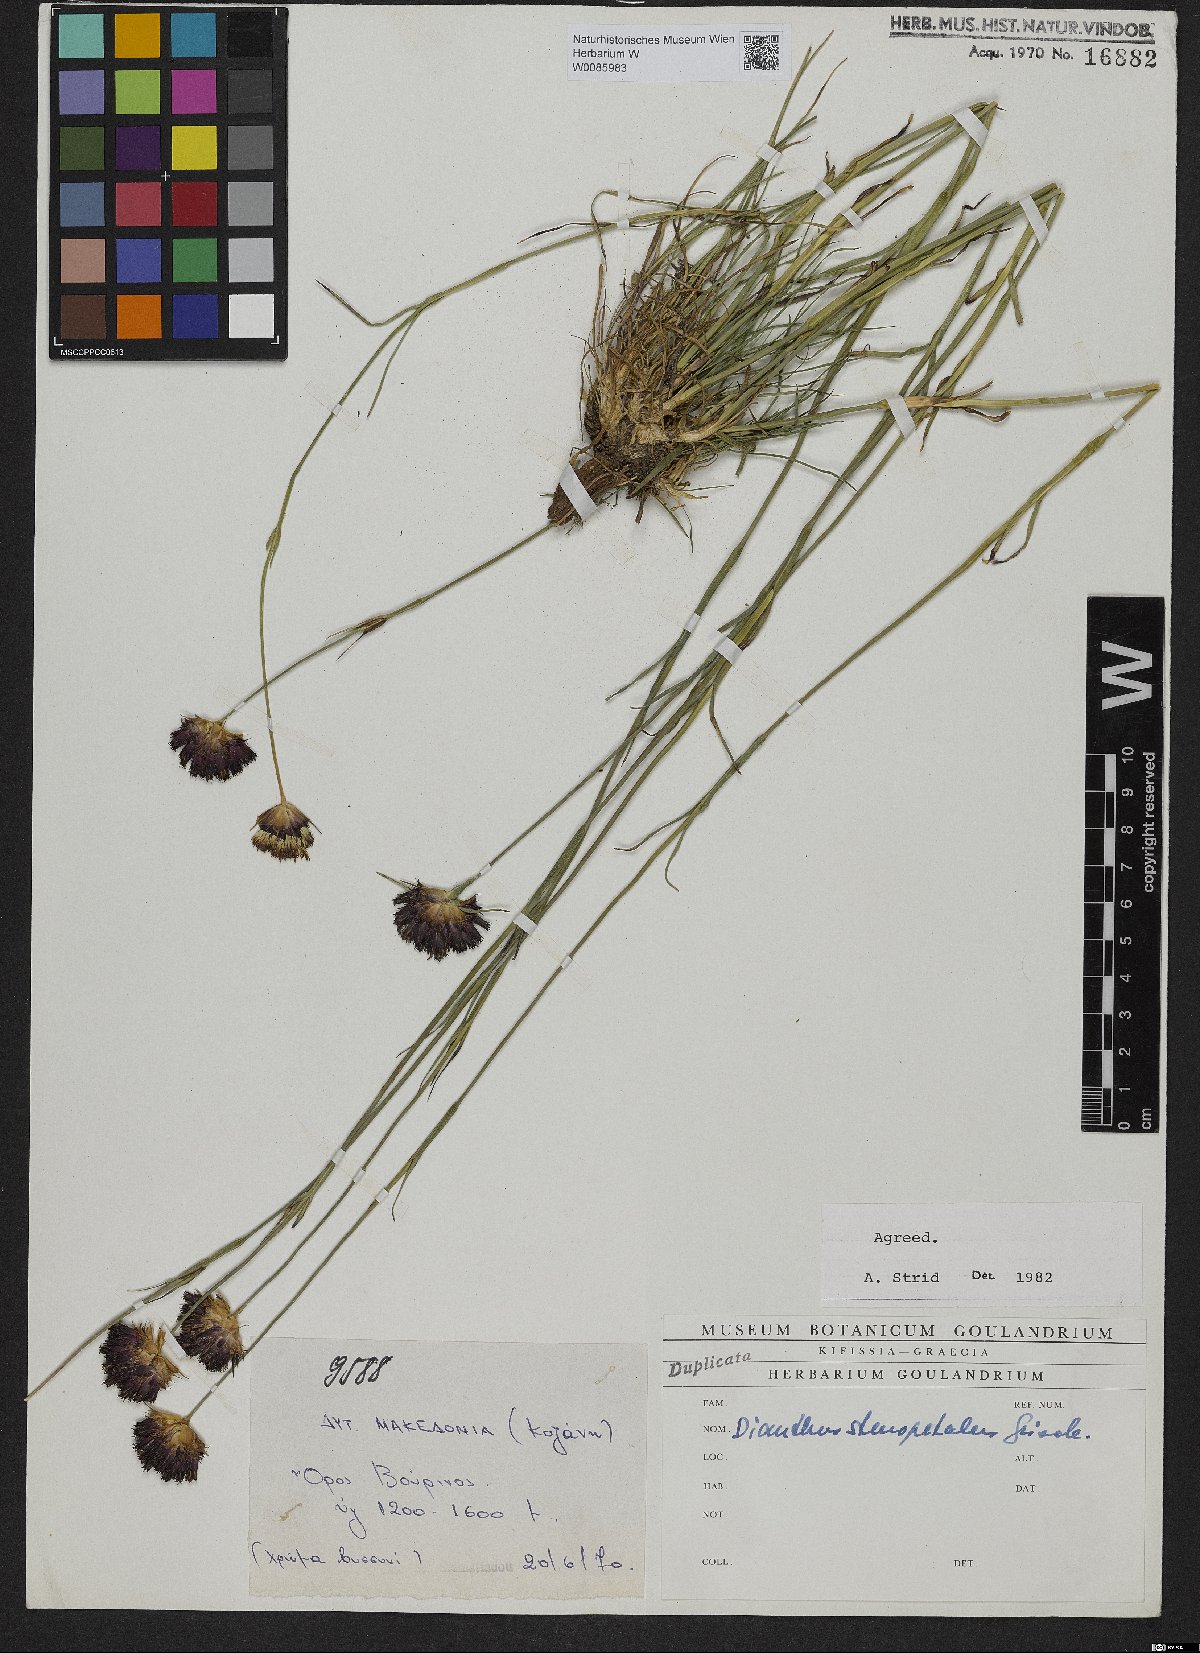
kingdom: Plantae
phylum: Tracheophyta
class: Magnoliopsida
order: Caryophyllales
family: Caryophyllaceae
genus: Dianthus
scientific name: Dianthus stenopetalus
